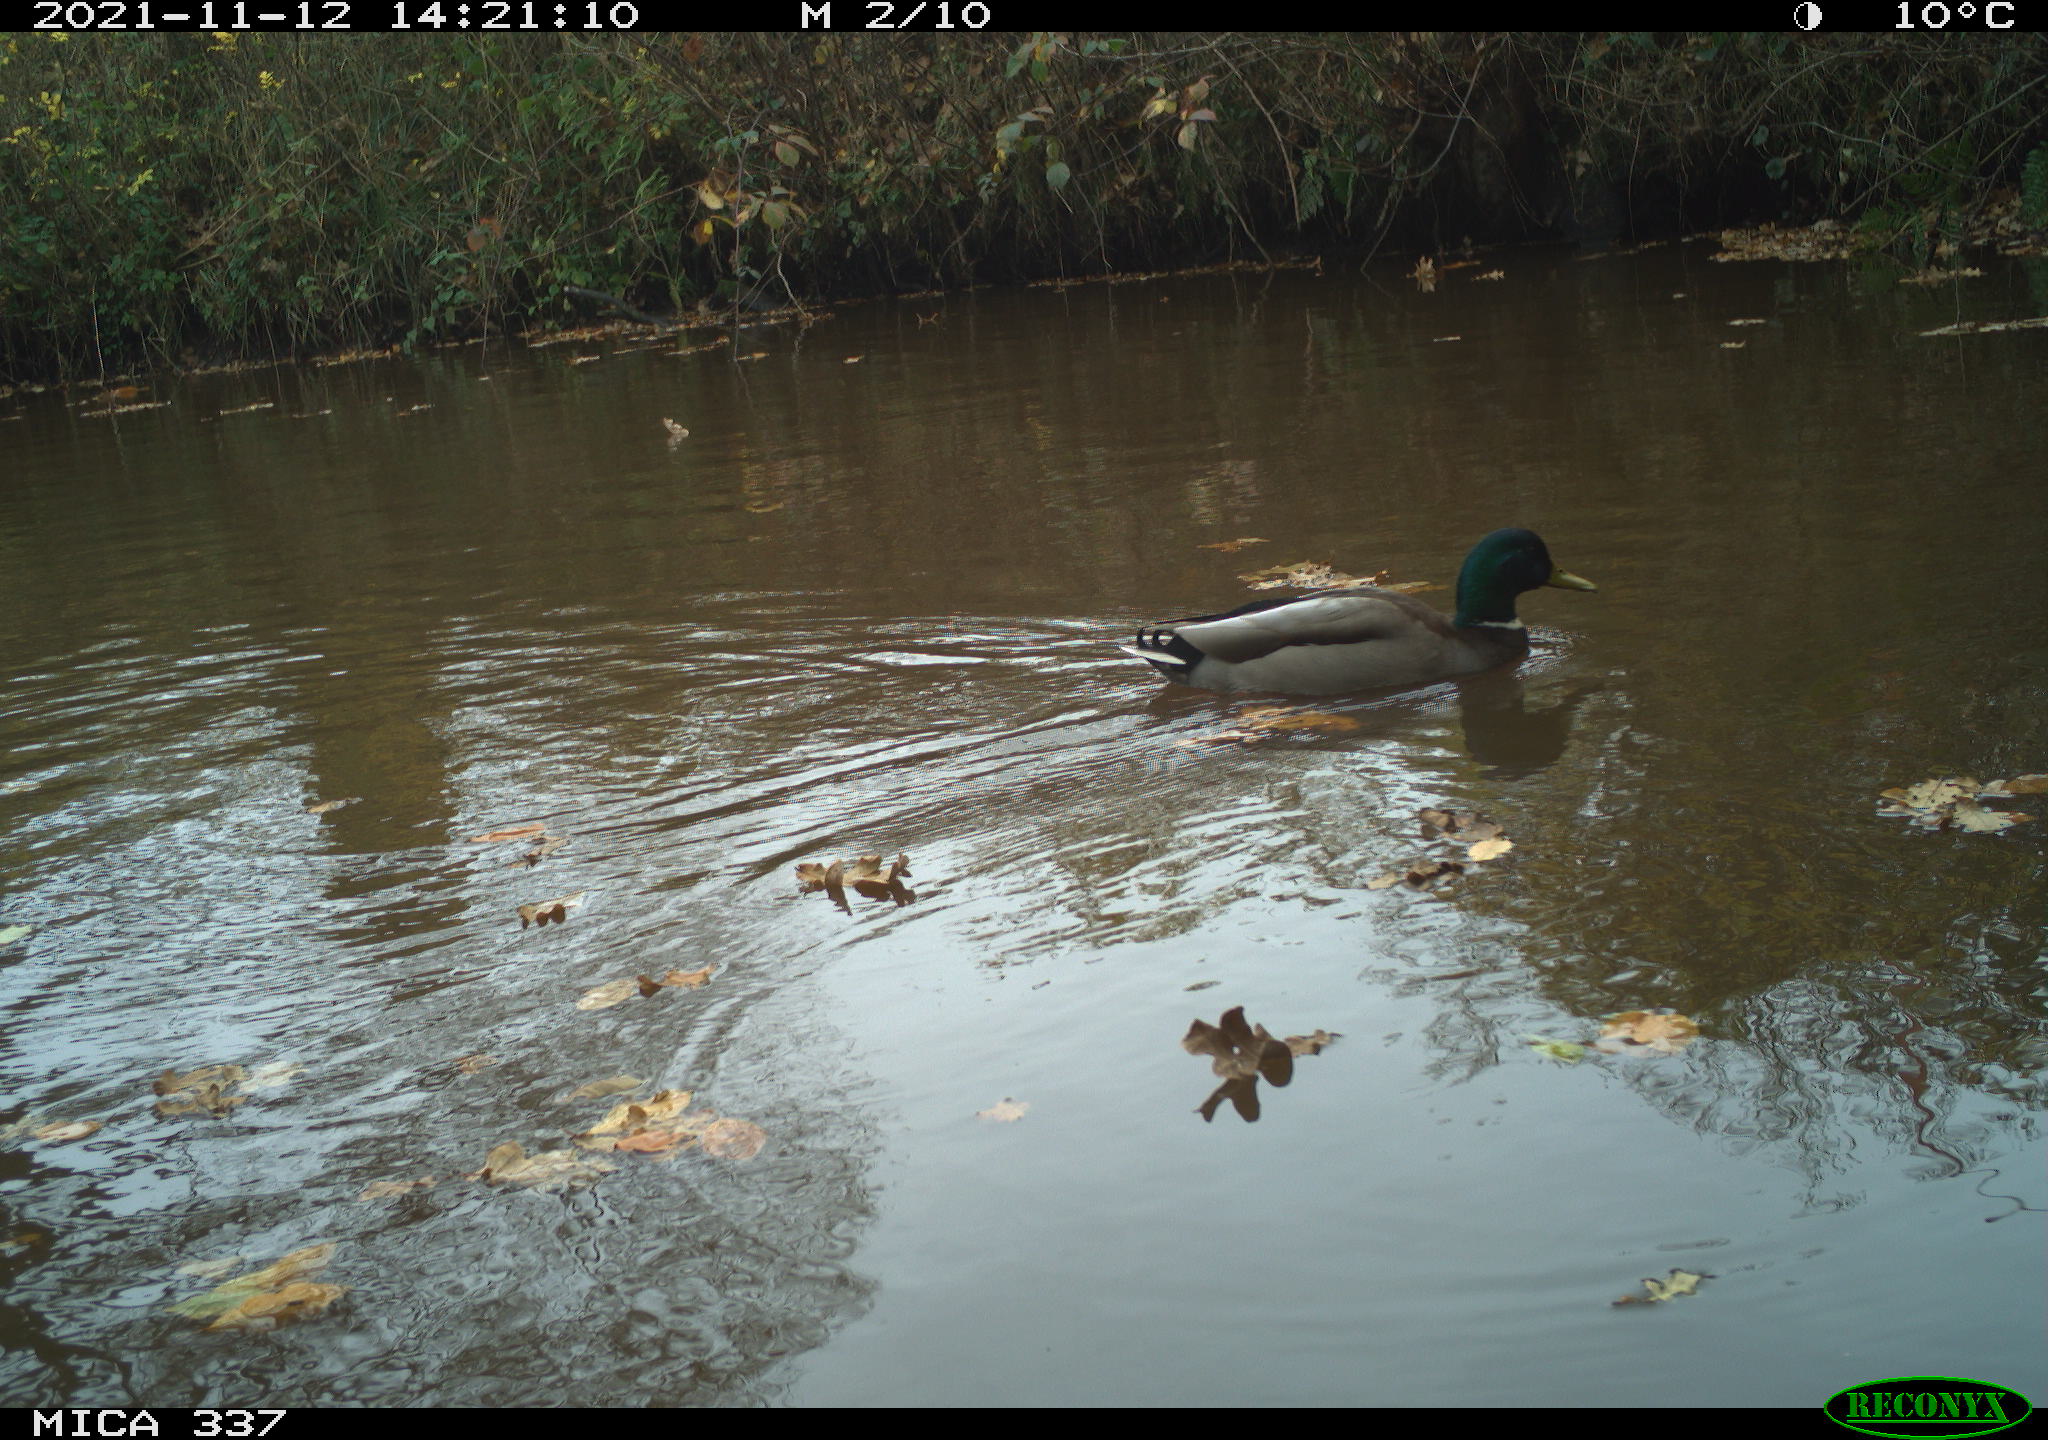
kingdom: Animalia
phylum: Chordata
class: Aves
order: Anseriformes
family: Anatidae
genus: Anas
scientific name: Anas platyrhynchos
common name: Mallard
